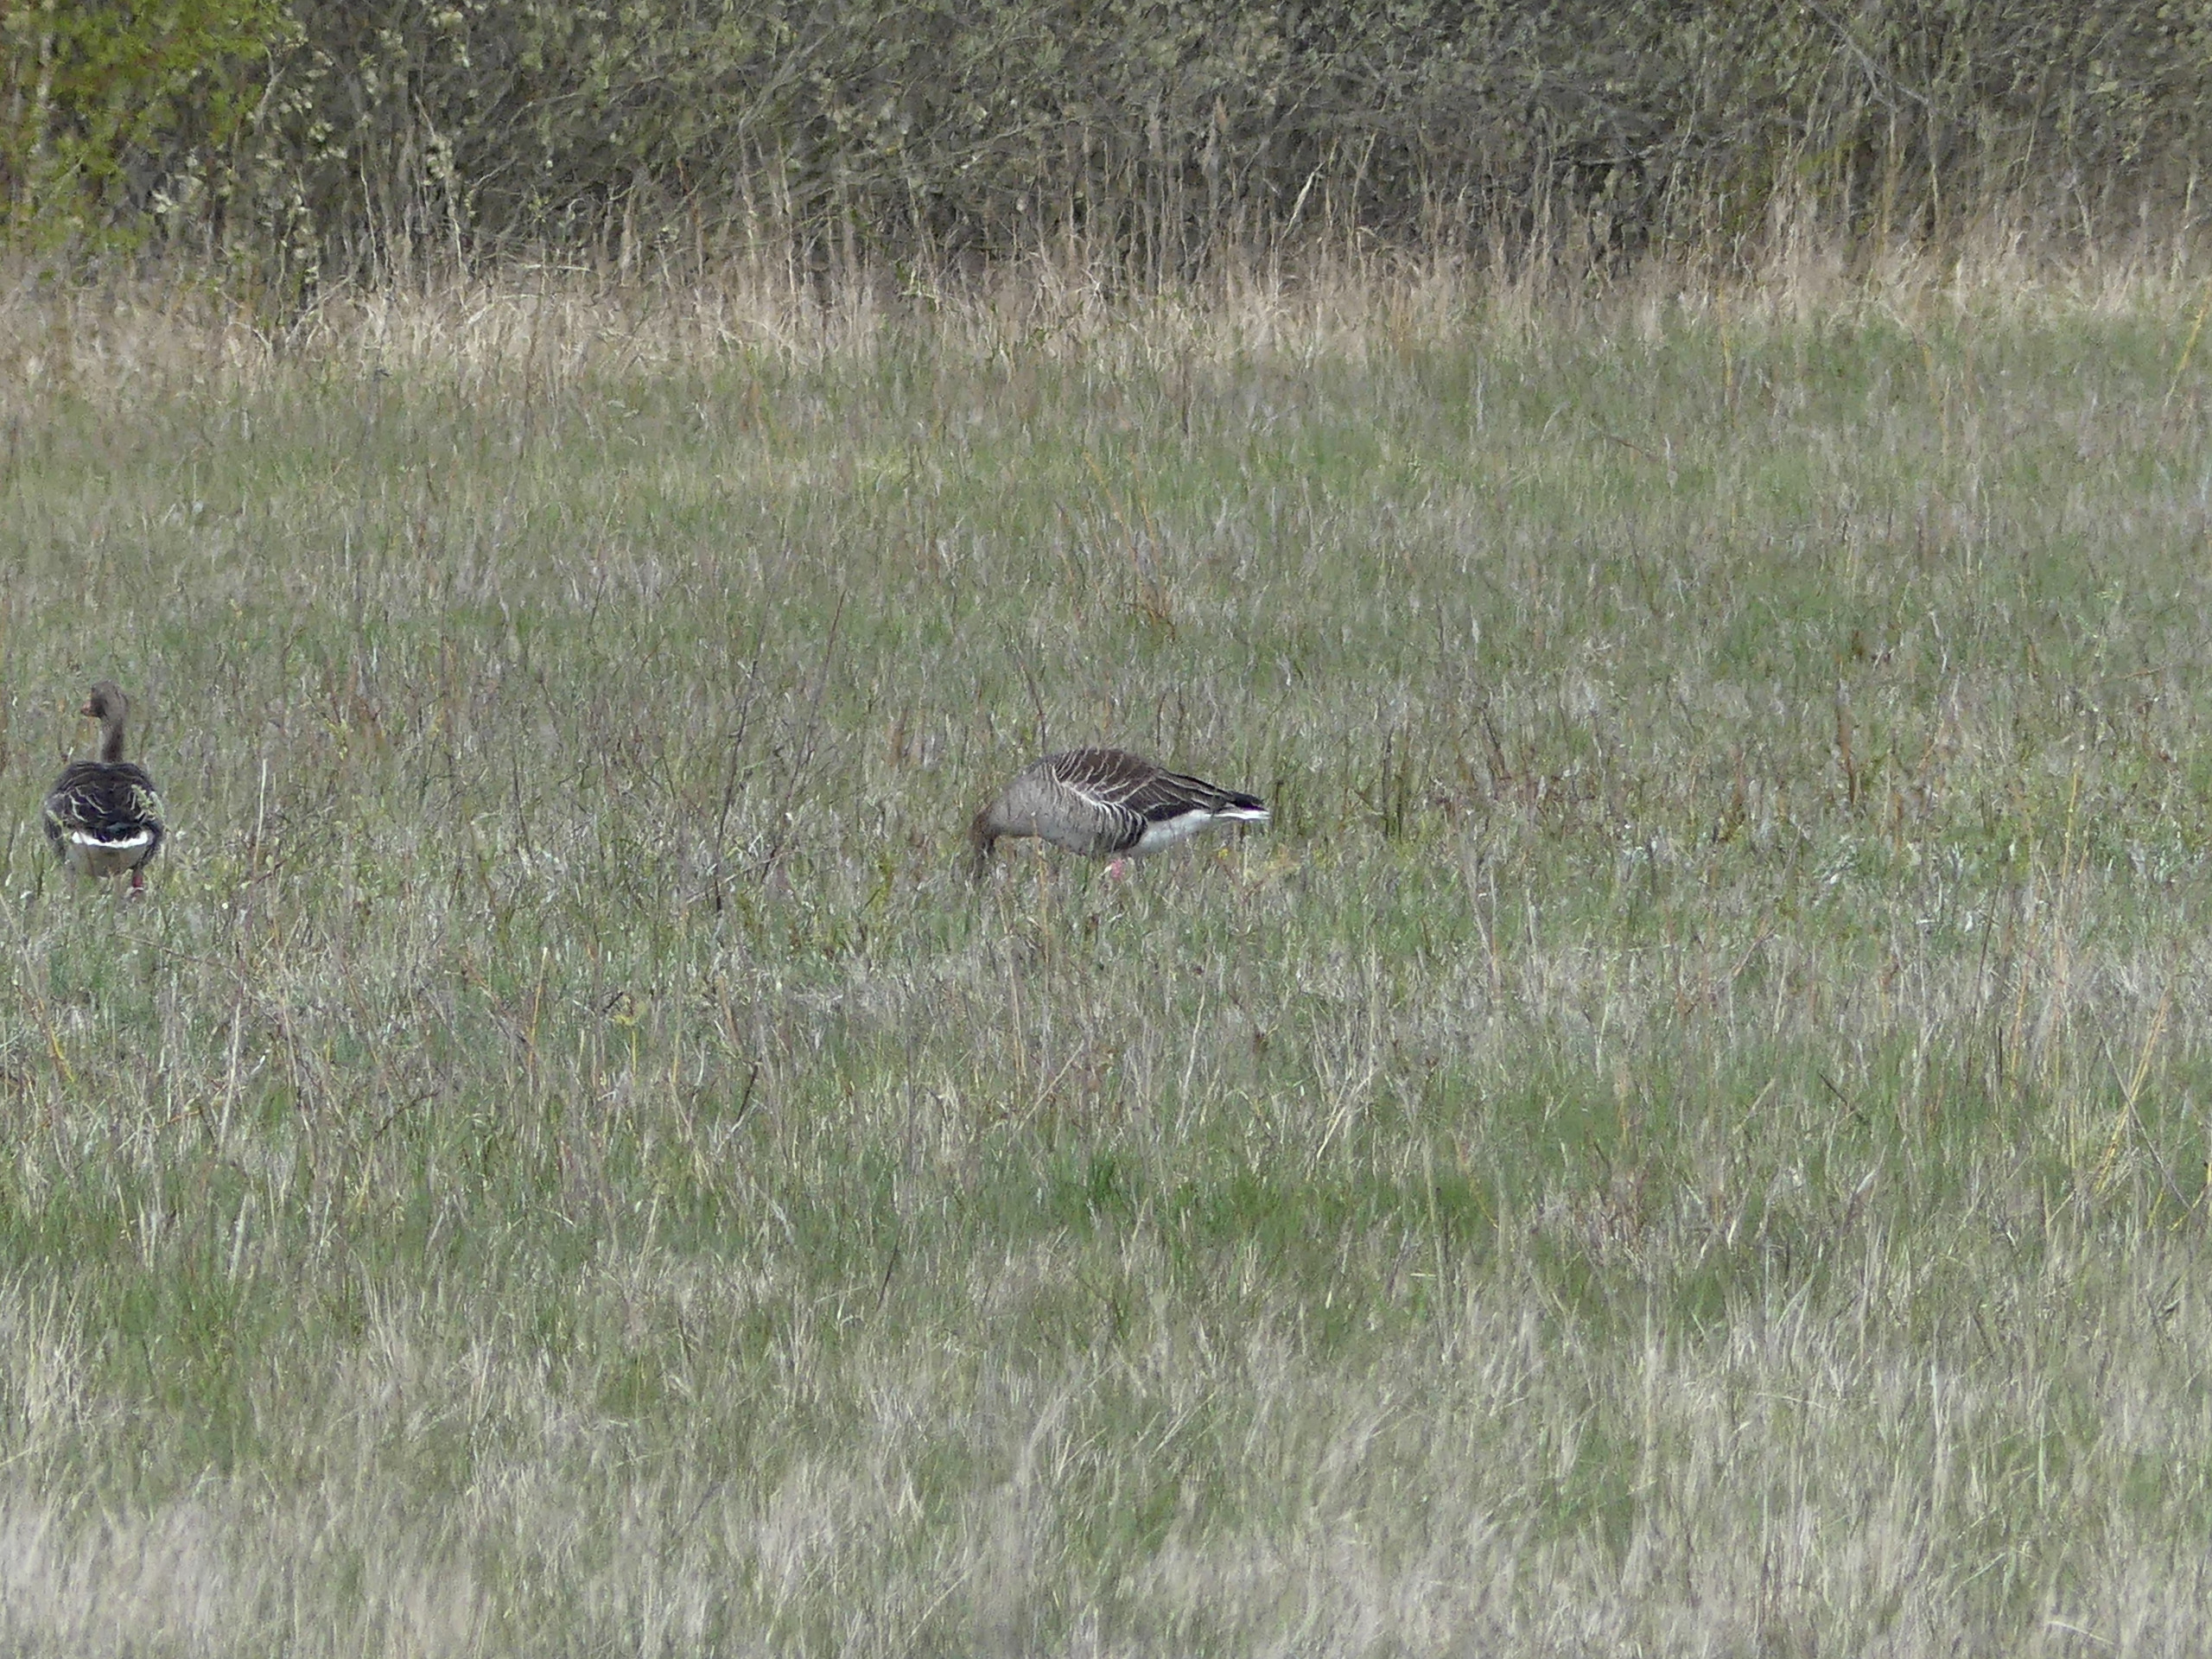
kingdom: Animalia
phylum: Chordata
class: Aves
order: Anseriformes
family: Anatidae
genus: Anser
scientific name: Anser anser
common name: Grågås
